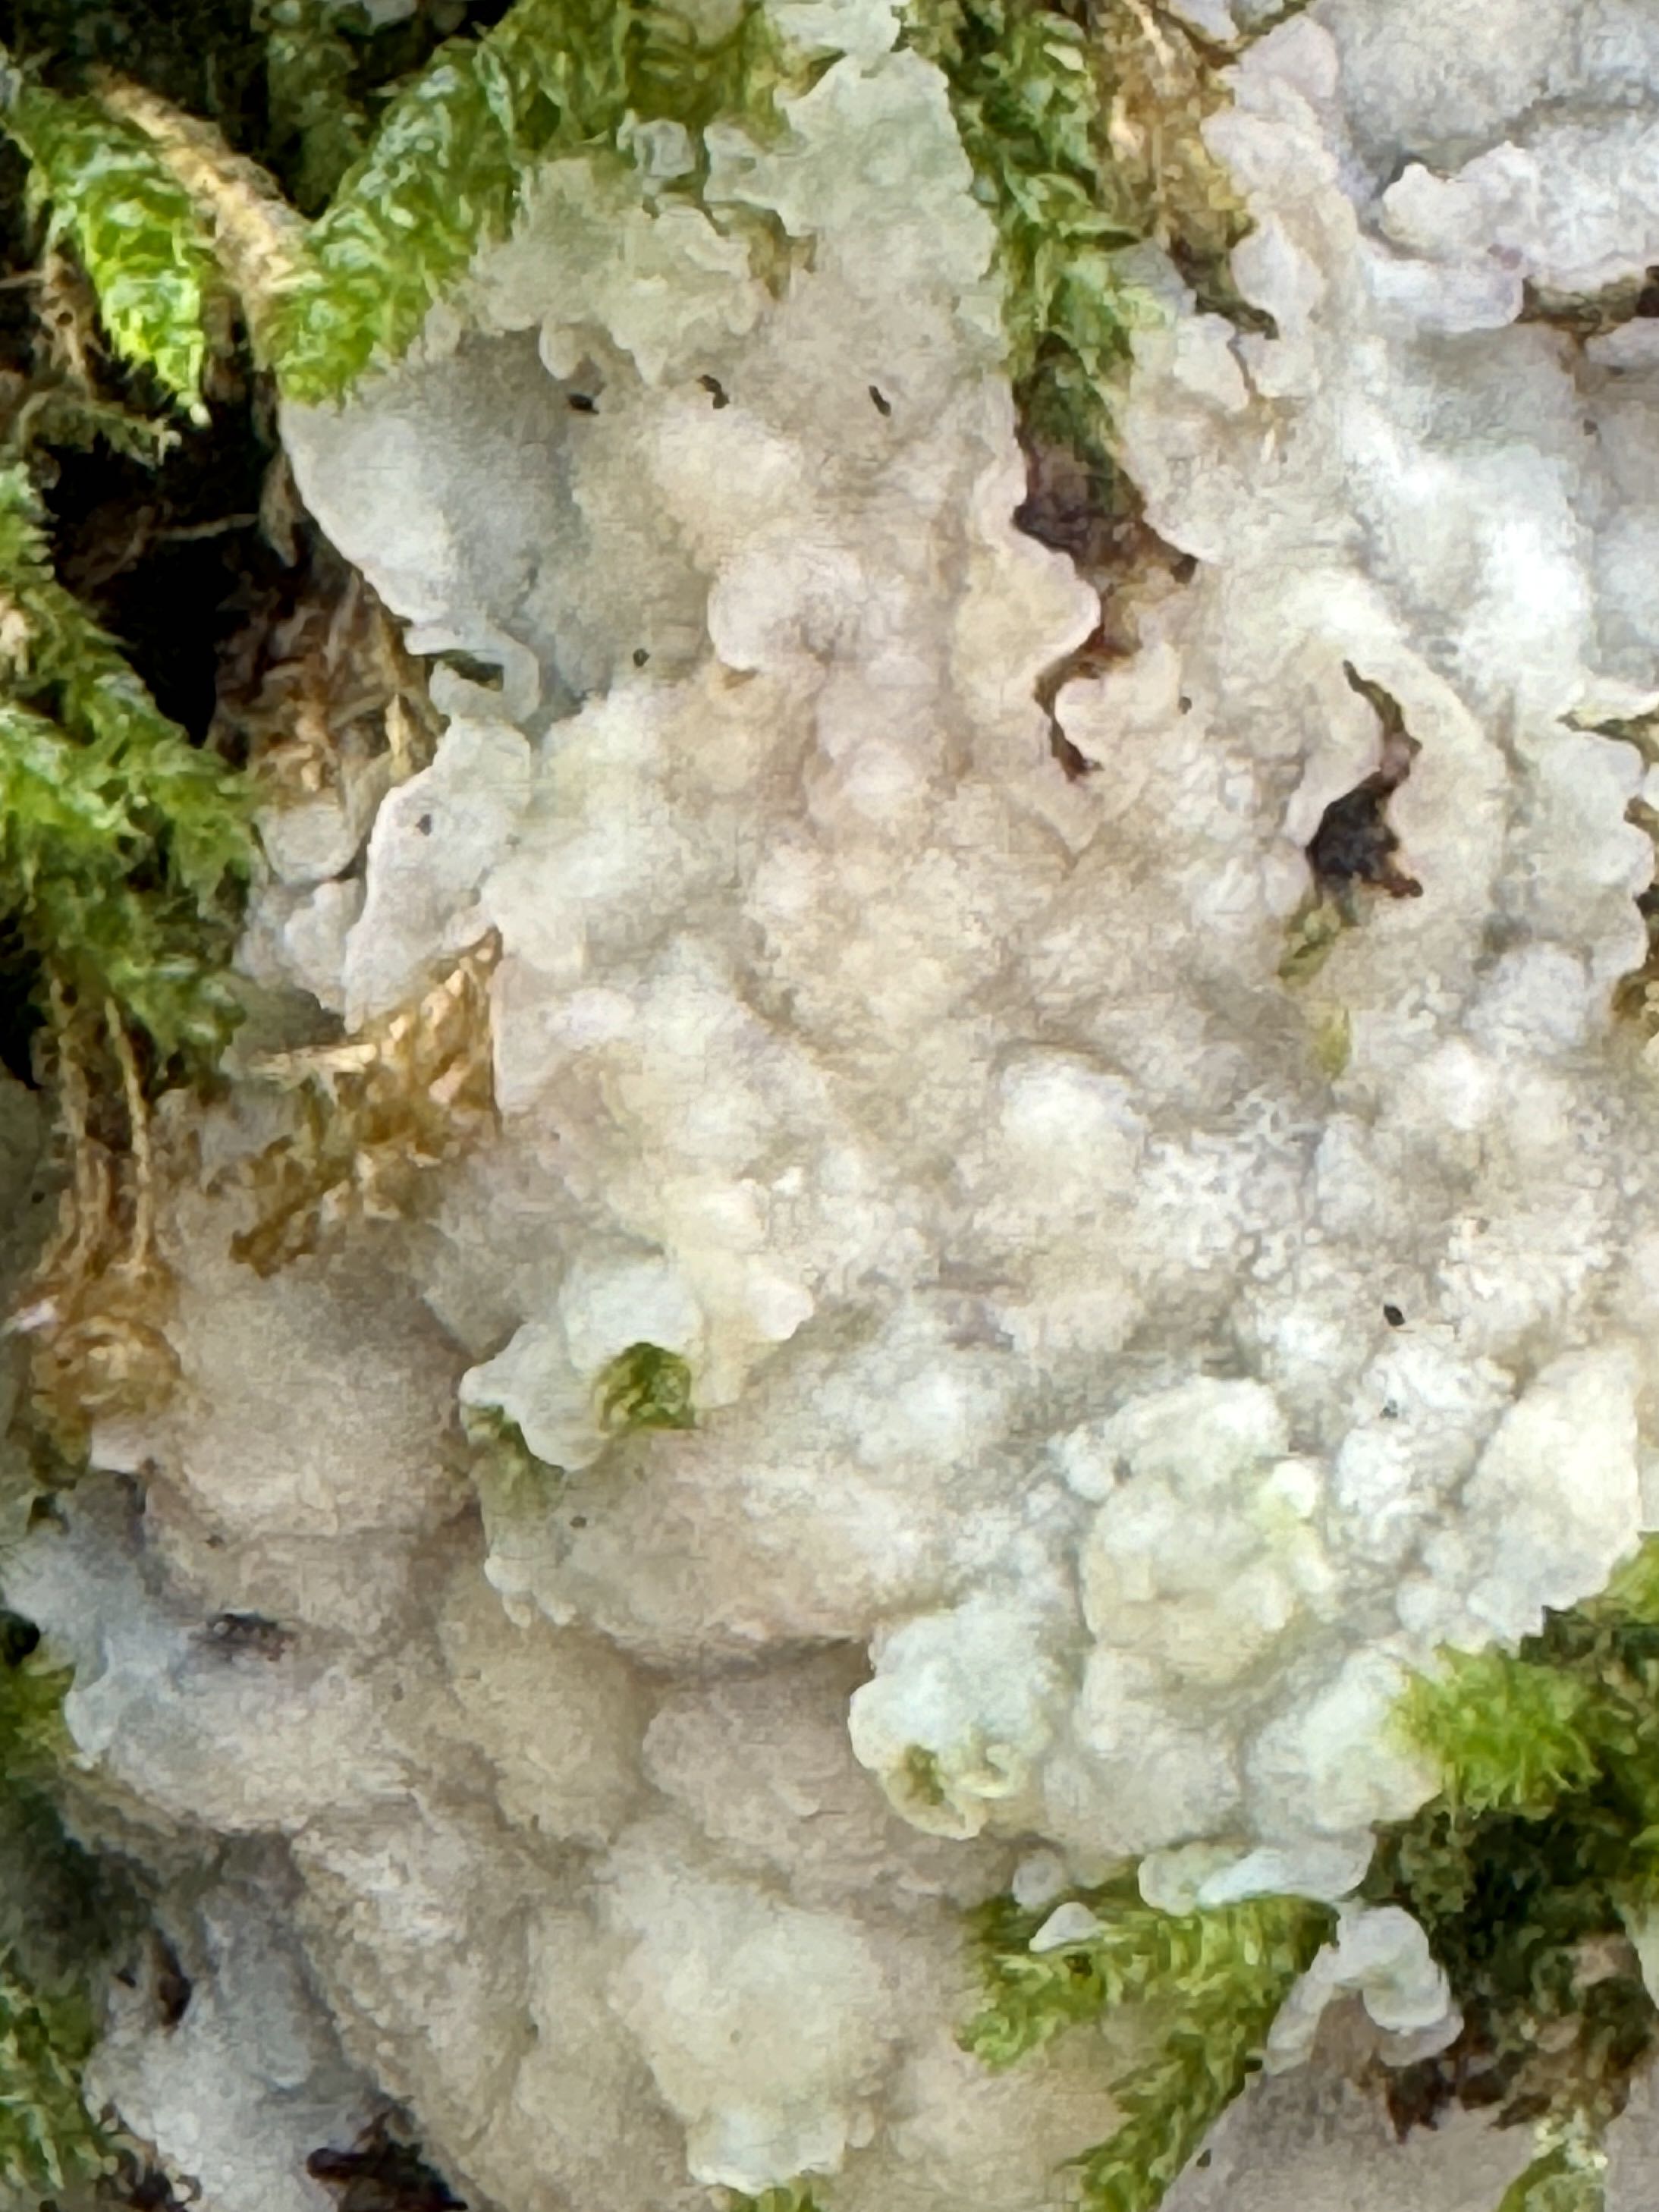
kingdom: Fungi
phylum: Basidiomycota
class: Agaricomycetes
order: Polyporales
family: Meruliaceae
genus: Physisporinus
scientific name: Physisporinus vitreus
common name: mastesvamp
